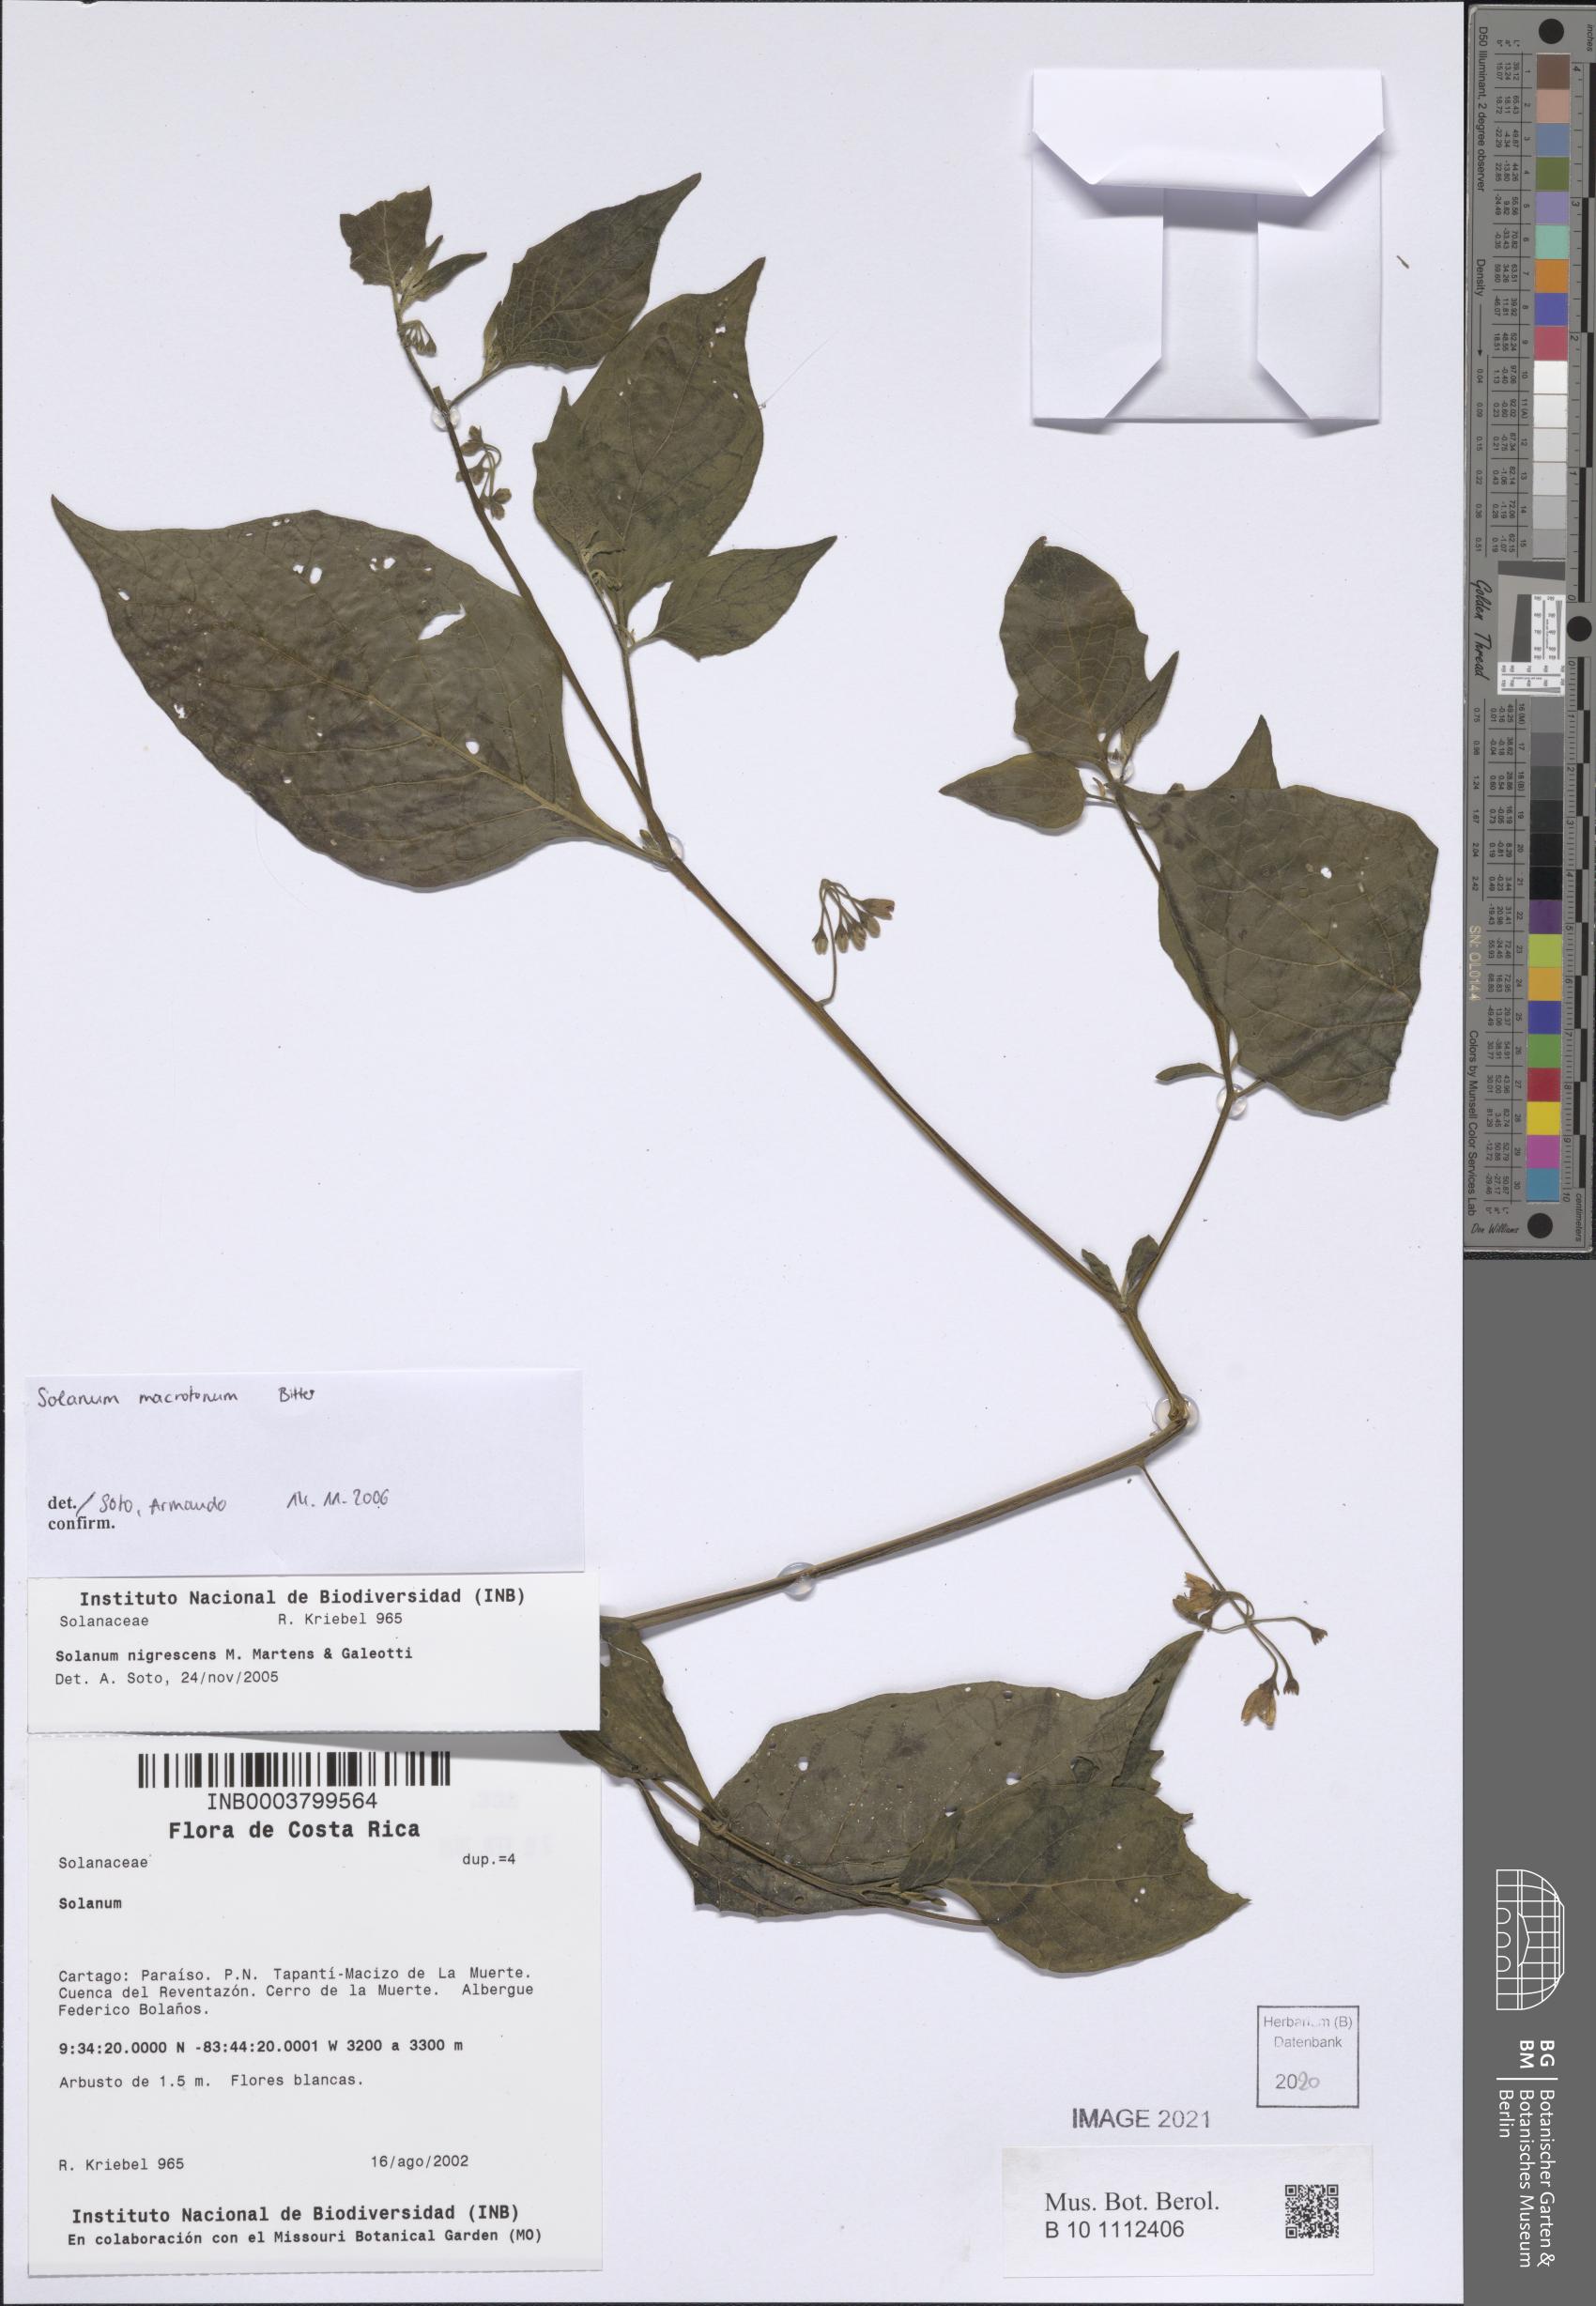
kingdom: Plantae
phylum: Tracheophyta
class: Magnoliopsida
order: Solanales
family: Solanaceae
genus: Solanum
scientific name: Solanum macrotonum
